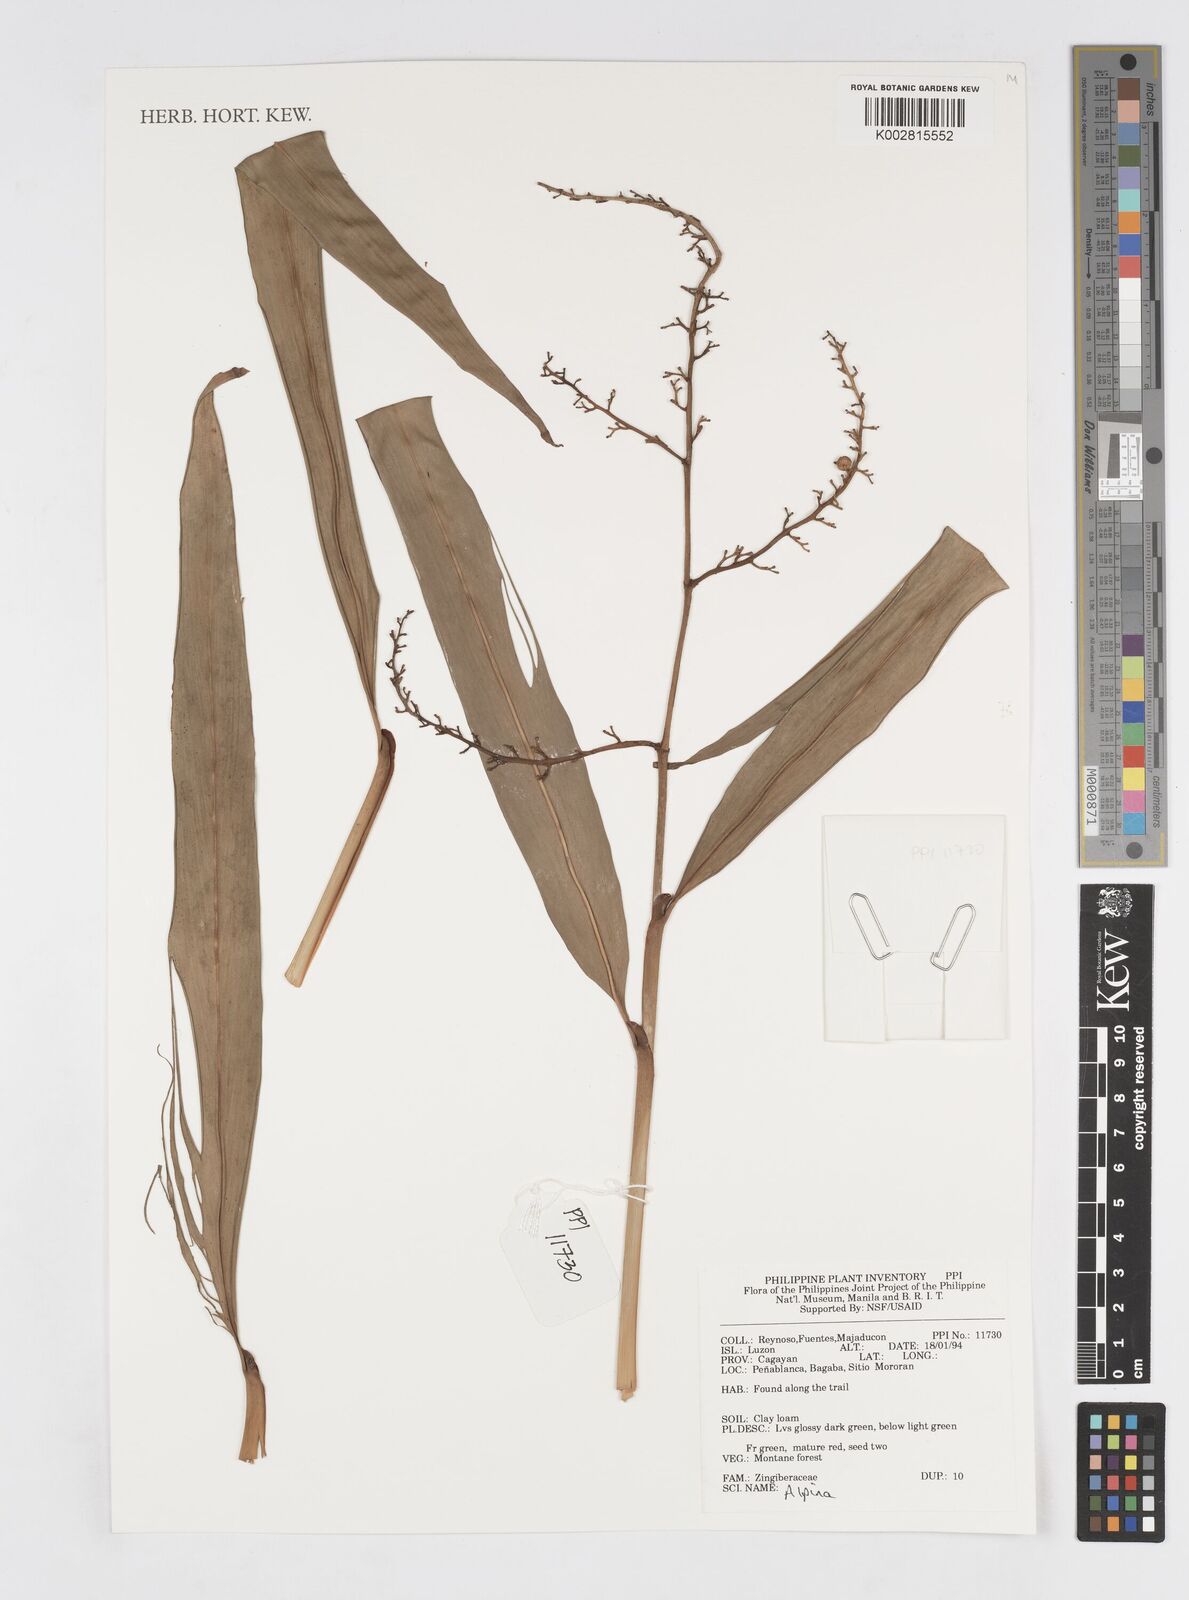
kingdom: Plantae
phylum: Tracheophyta
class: Liliopsida
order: Zingiberales
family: Zingiberaceae
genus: Alpinia
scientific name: Alpinia
